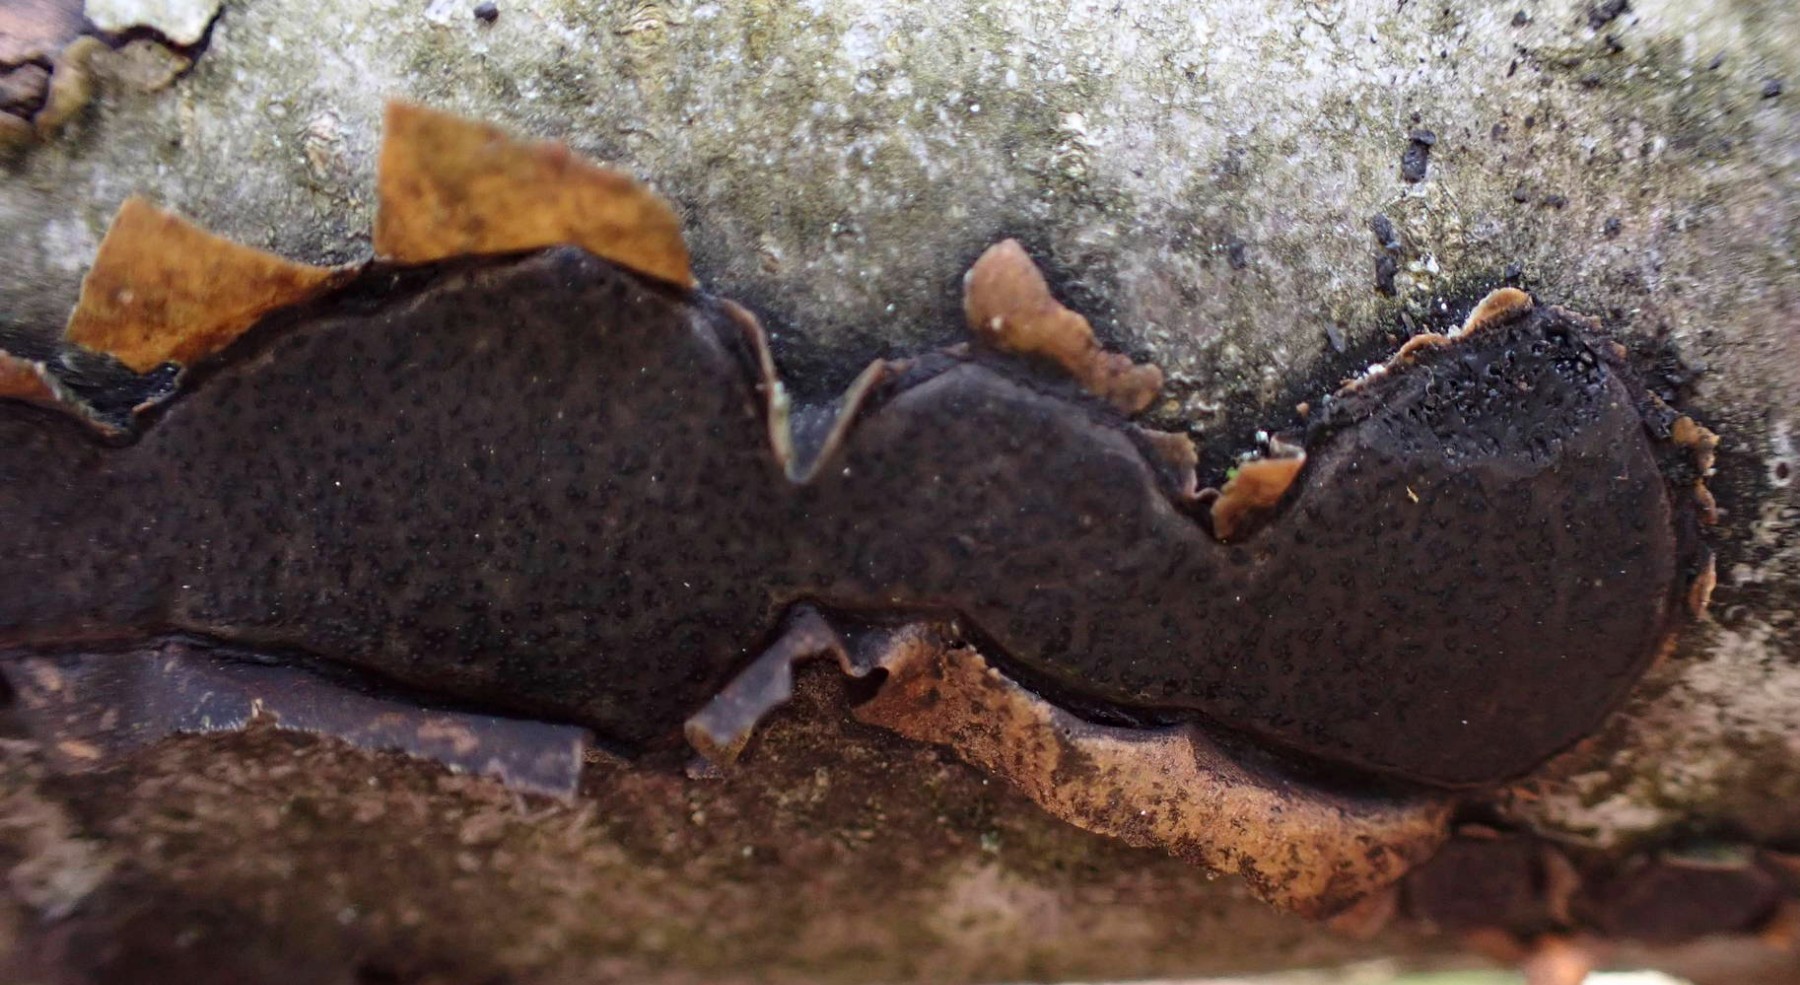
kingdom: Fungi
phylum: Ascomycota
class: Sordariomycetes
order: Xylariales
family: Graphostromataceae
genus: Biscogniauxia
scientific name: Biscogniauxia nummularia
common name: bøge-kulskive
